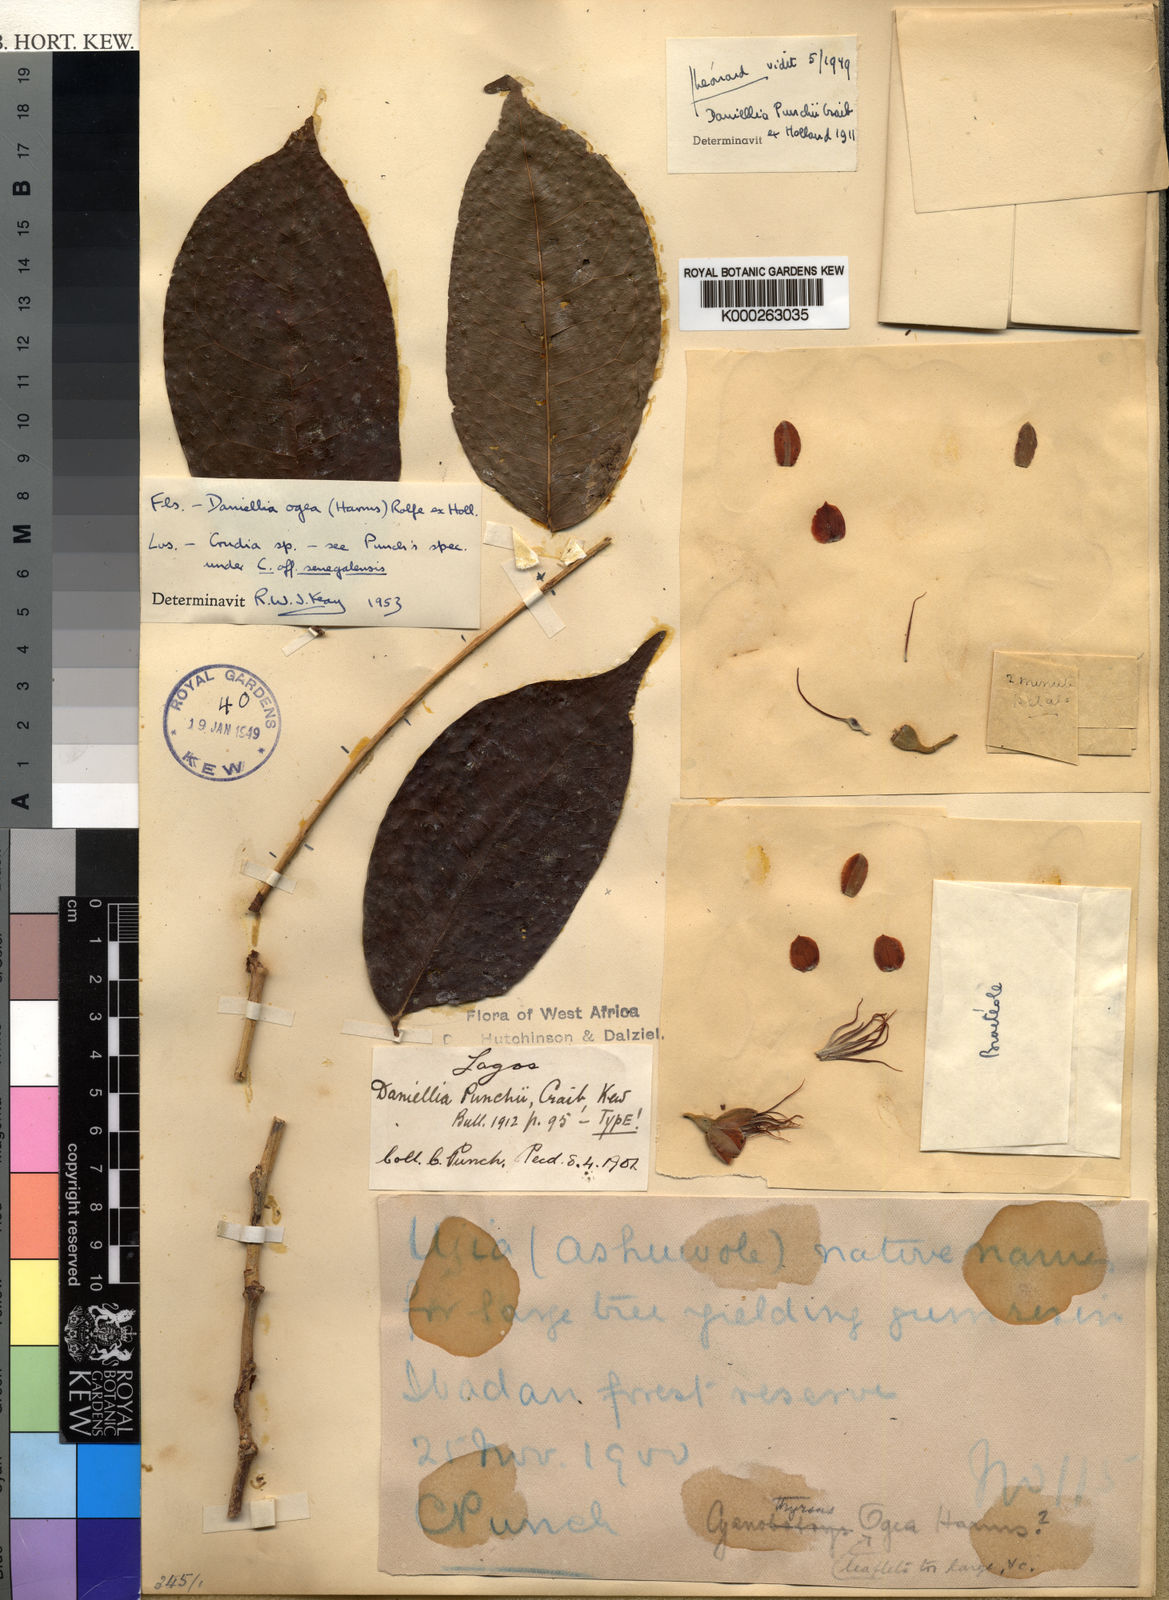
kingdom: Plantae
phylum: Tracheophyta
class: Magnoliopsida
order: Fabales
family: Fabaceae
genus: Daniellia
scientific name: Daniellia ogea
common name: Accra copal
